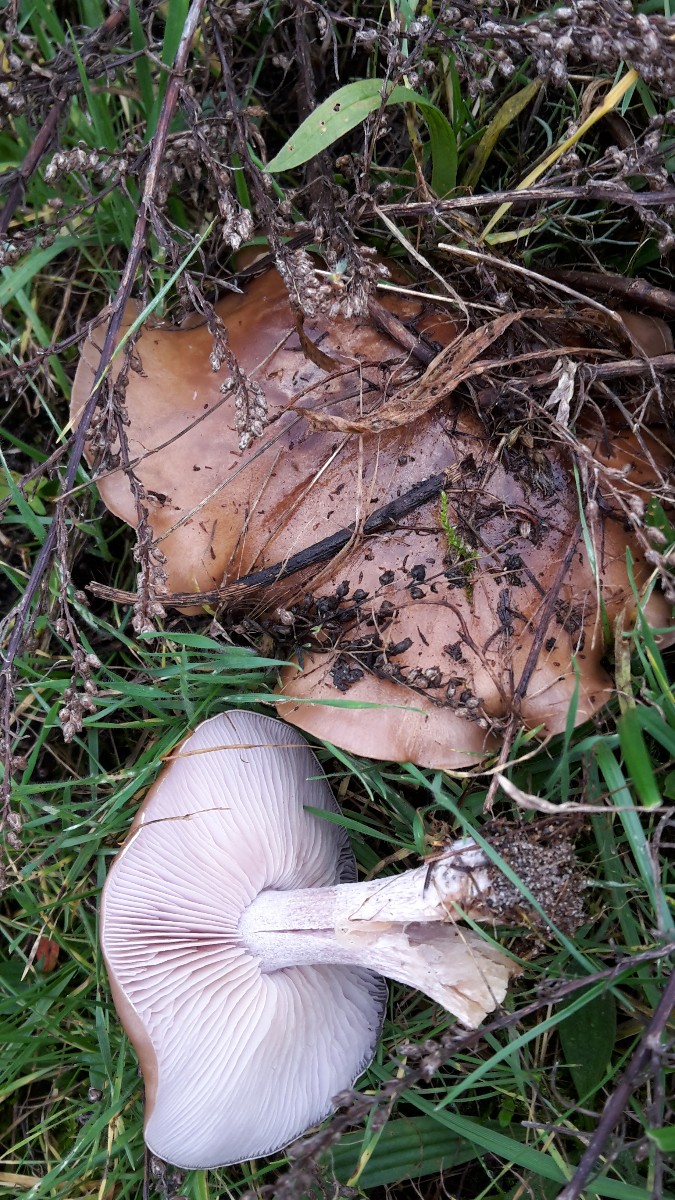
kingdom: Fungi
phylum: Basidiomycota
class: Agaricomycetes
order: Agaricales
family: Tricholomataceae
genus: Lepista
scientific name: Lepista nuda
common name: violet hekseringshat
